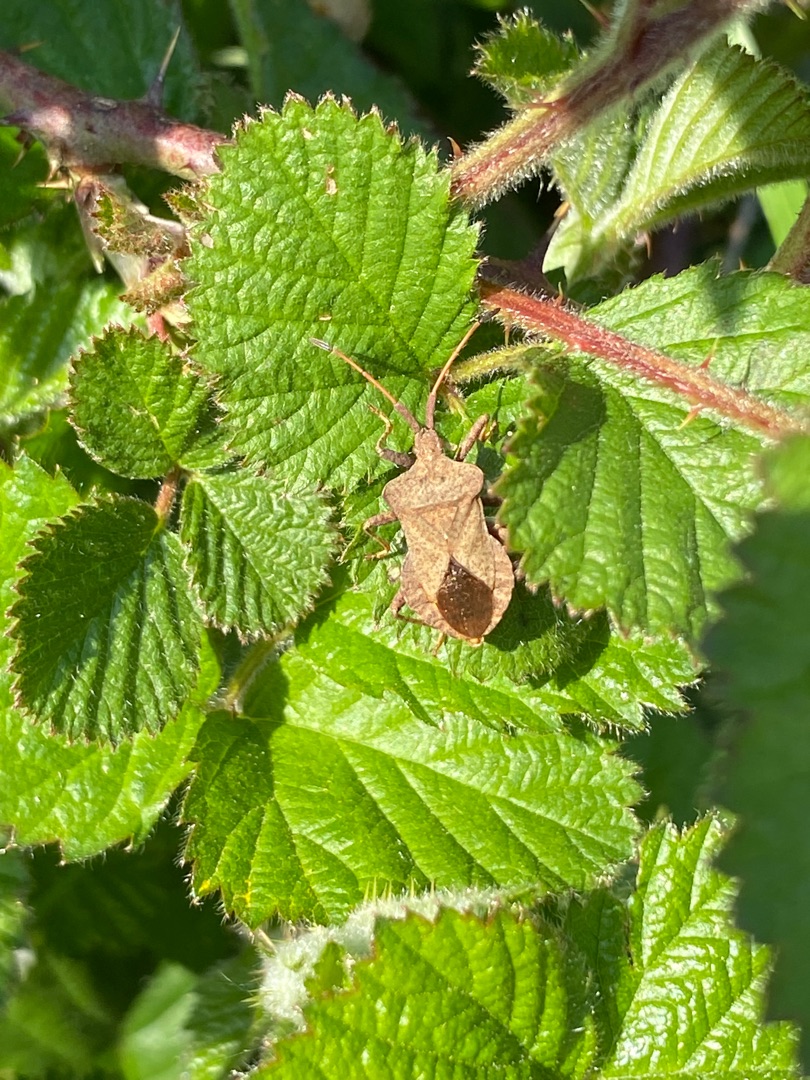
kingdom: Animalia
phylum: Arthropoda
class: Insecta
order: Hemiptera
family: Coreidae
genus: Coreus
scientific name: Coreus marginatus
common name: Skræppetæge
